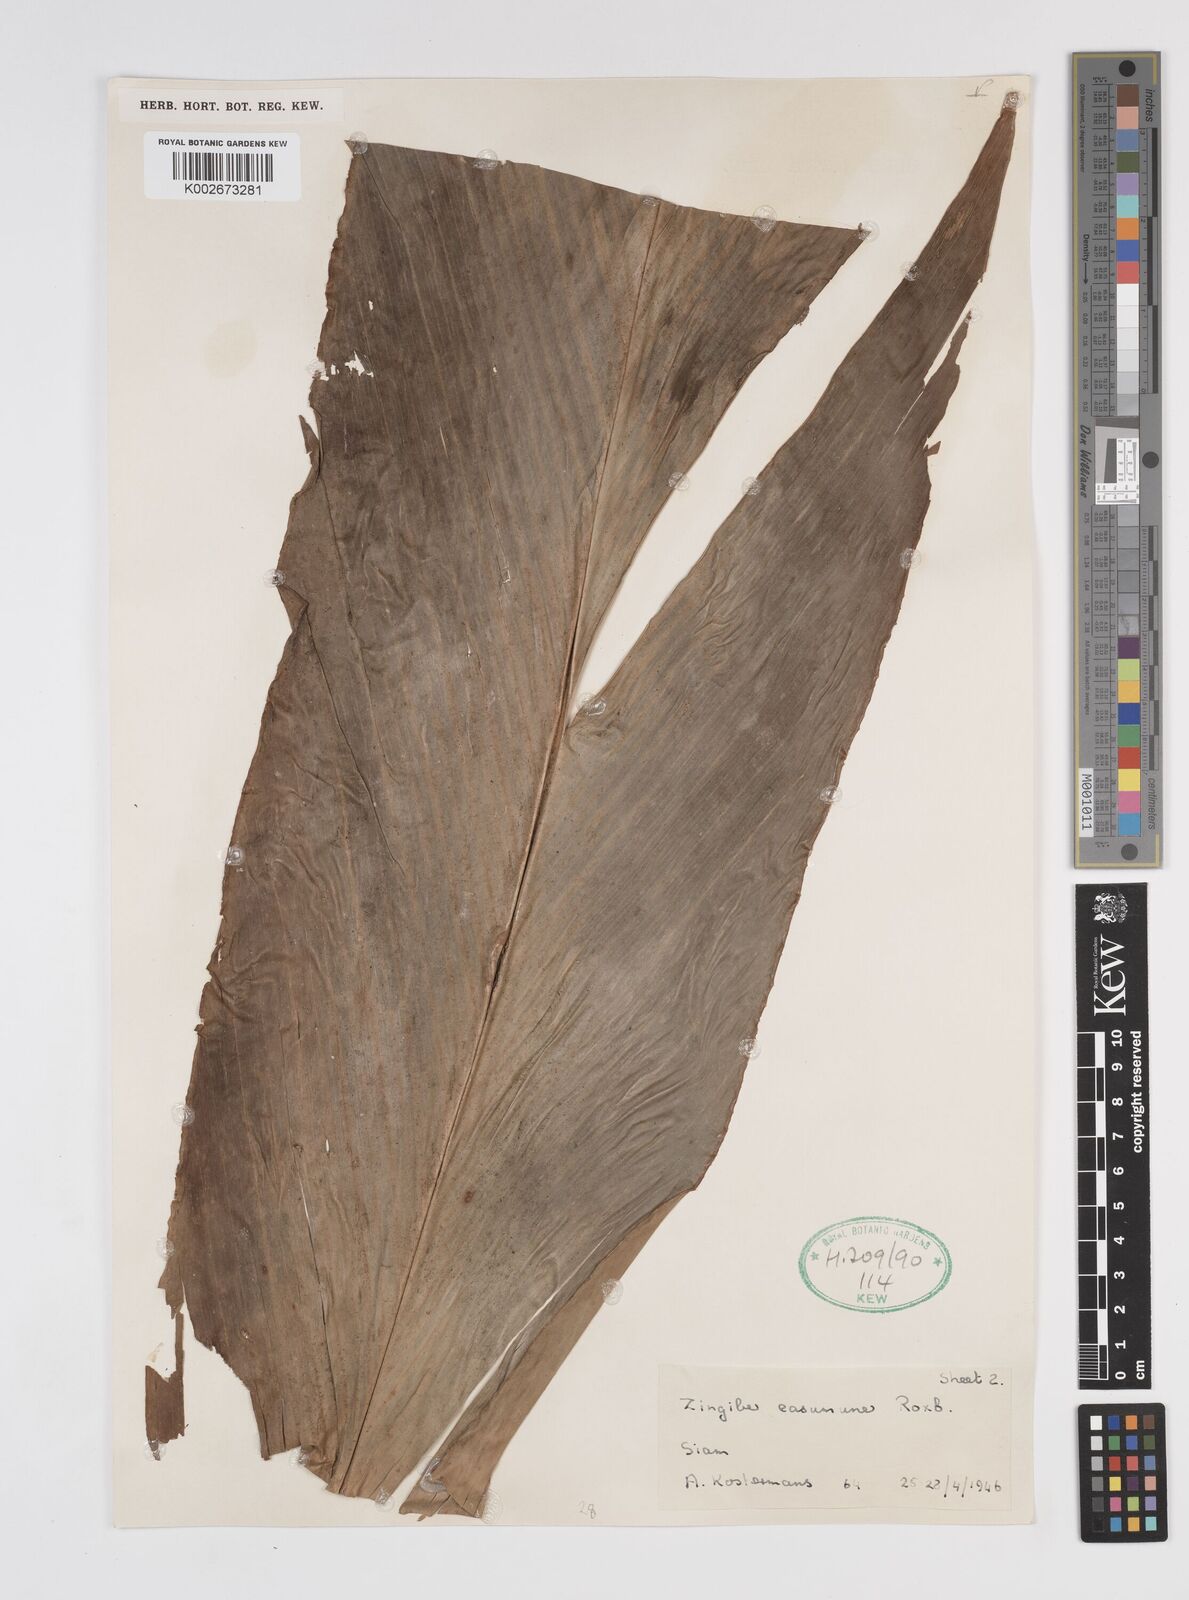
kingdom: Plantae
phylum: Tracheophyta
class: Liliopsida
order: Zingiberales
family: Zingiberaceae
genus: Amomum
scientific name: Amomum
